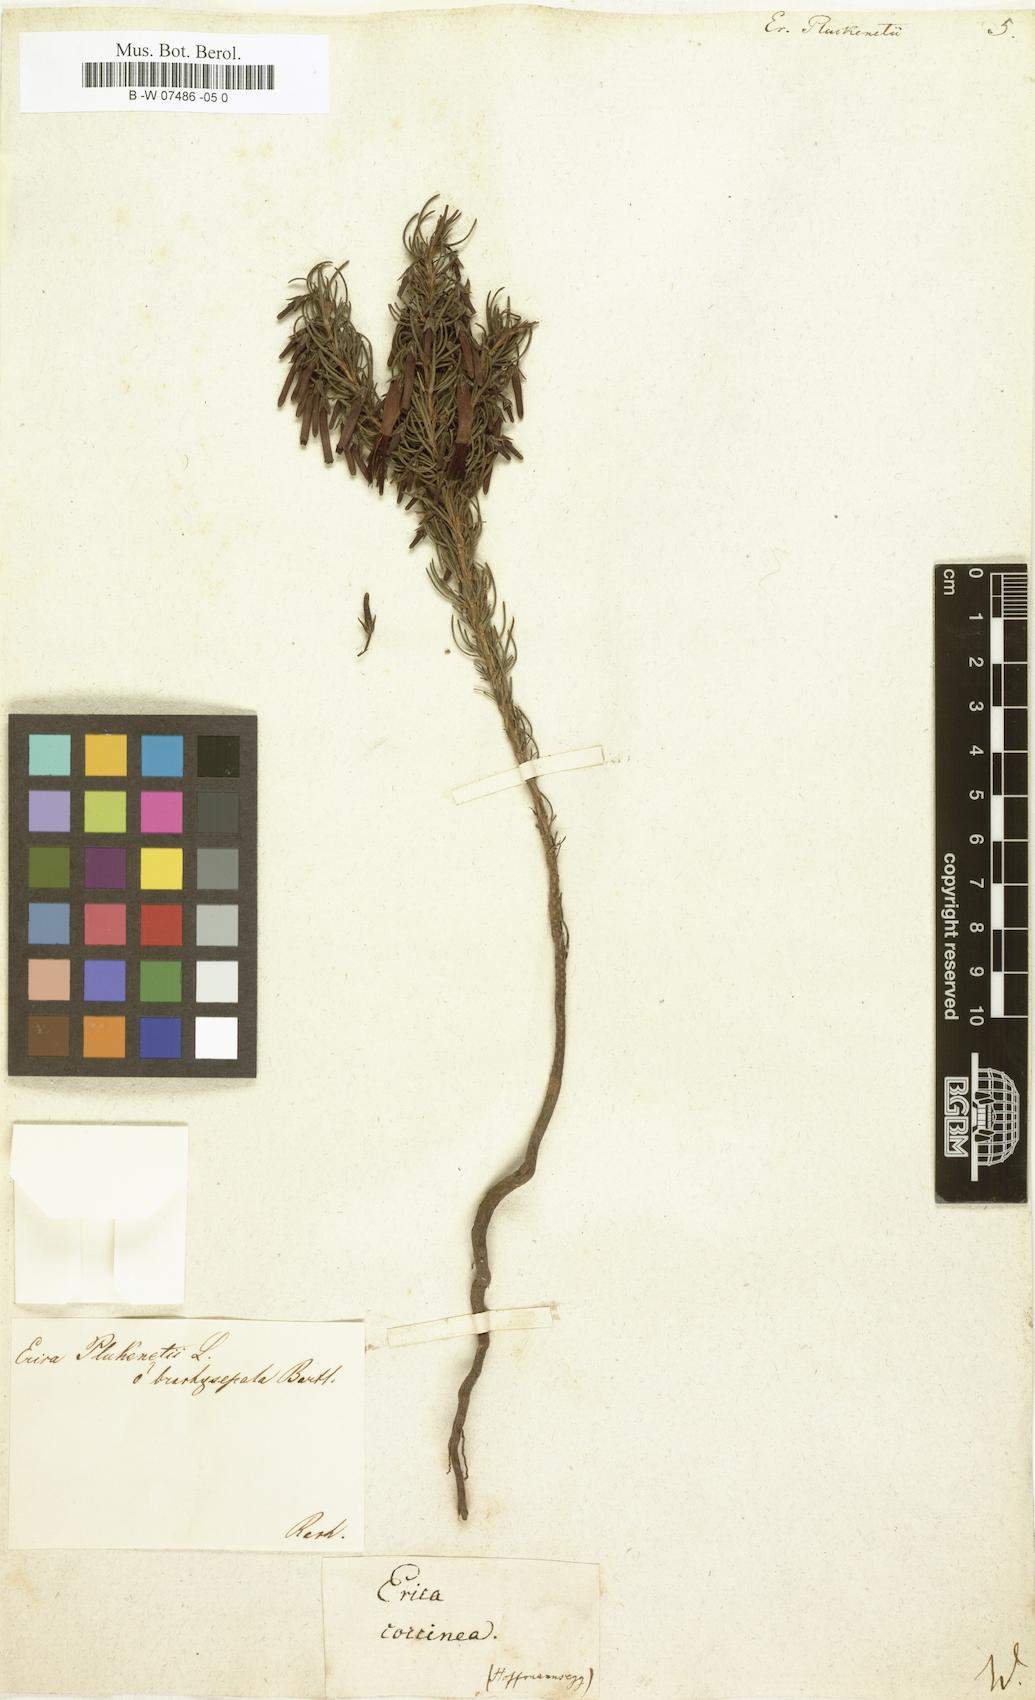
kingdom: Plantae
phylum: Tracheophyta
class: Magnoliopsida
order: Ericales
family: Ericaceae
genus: Erica
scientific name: Erica plukenetii
